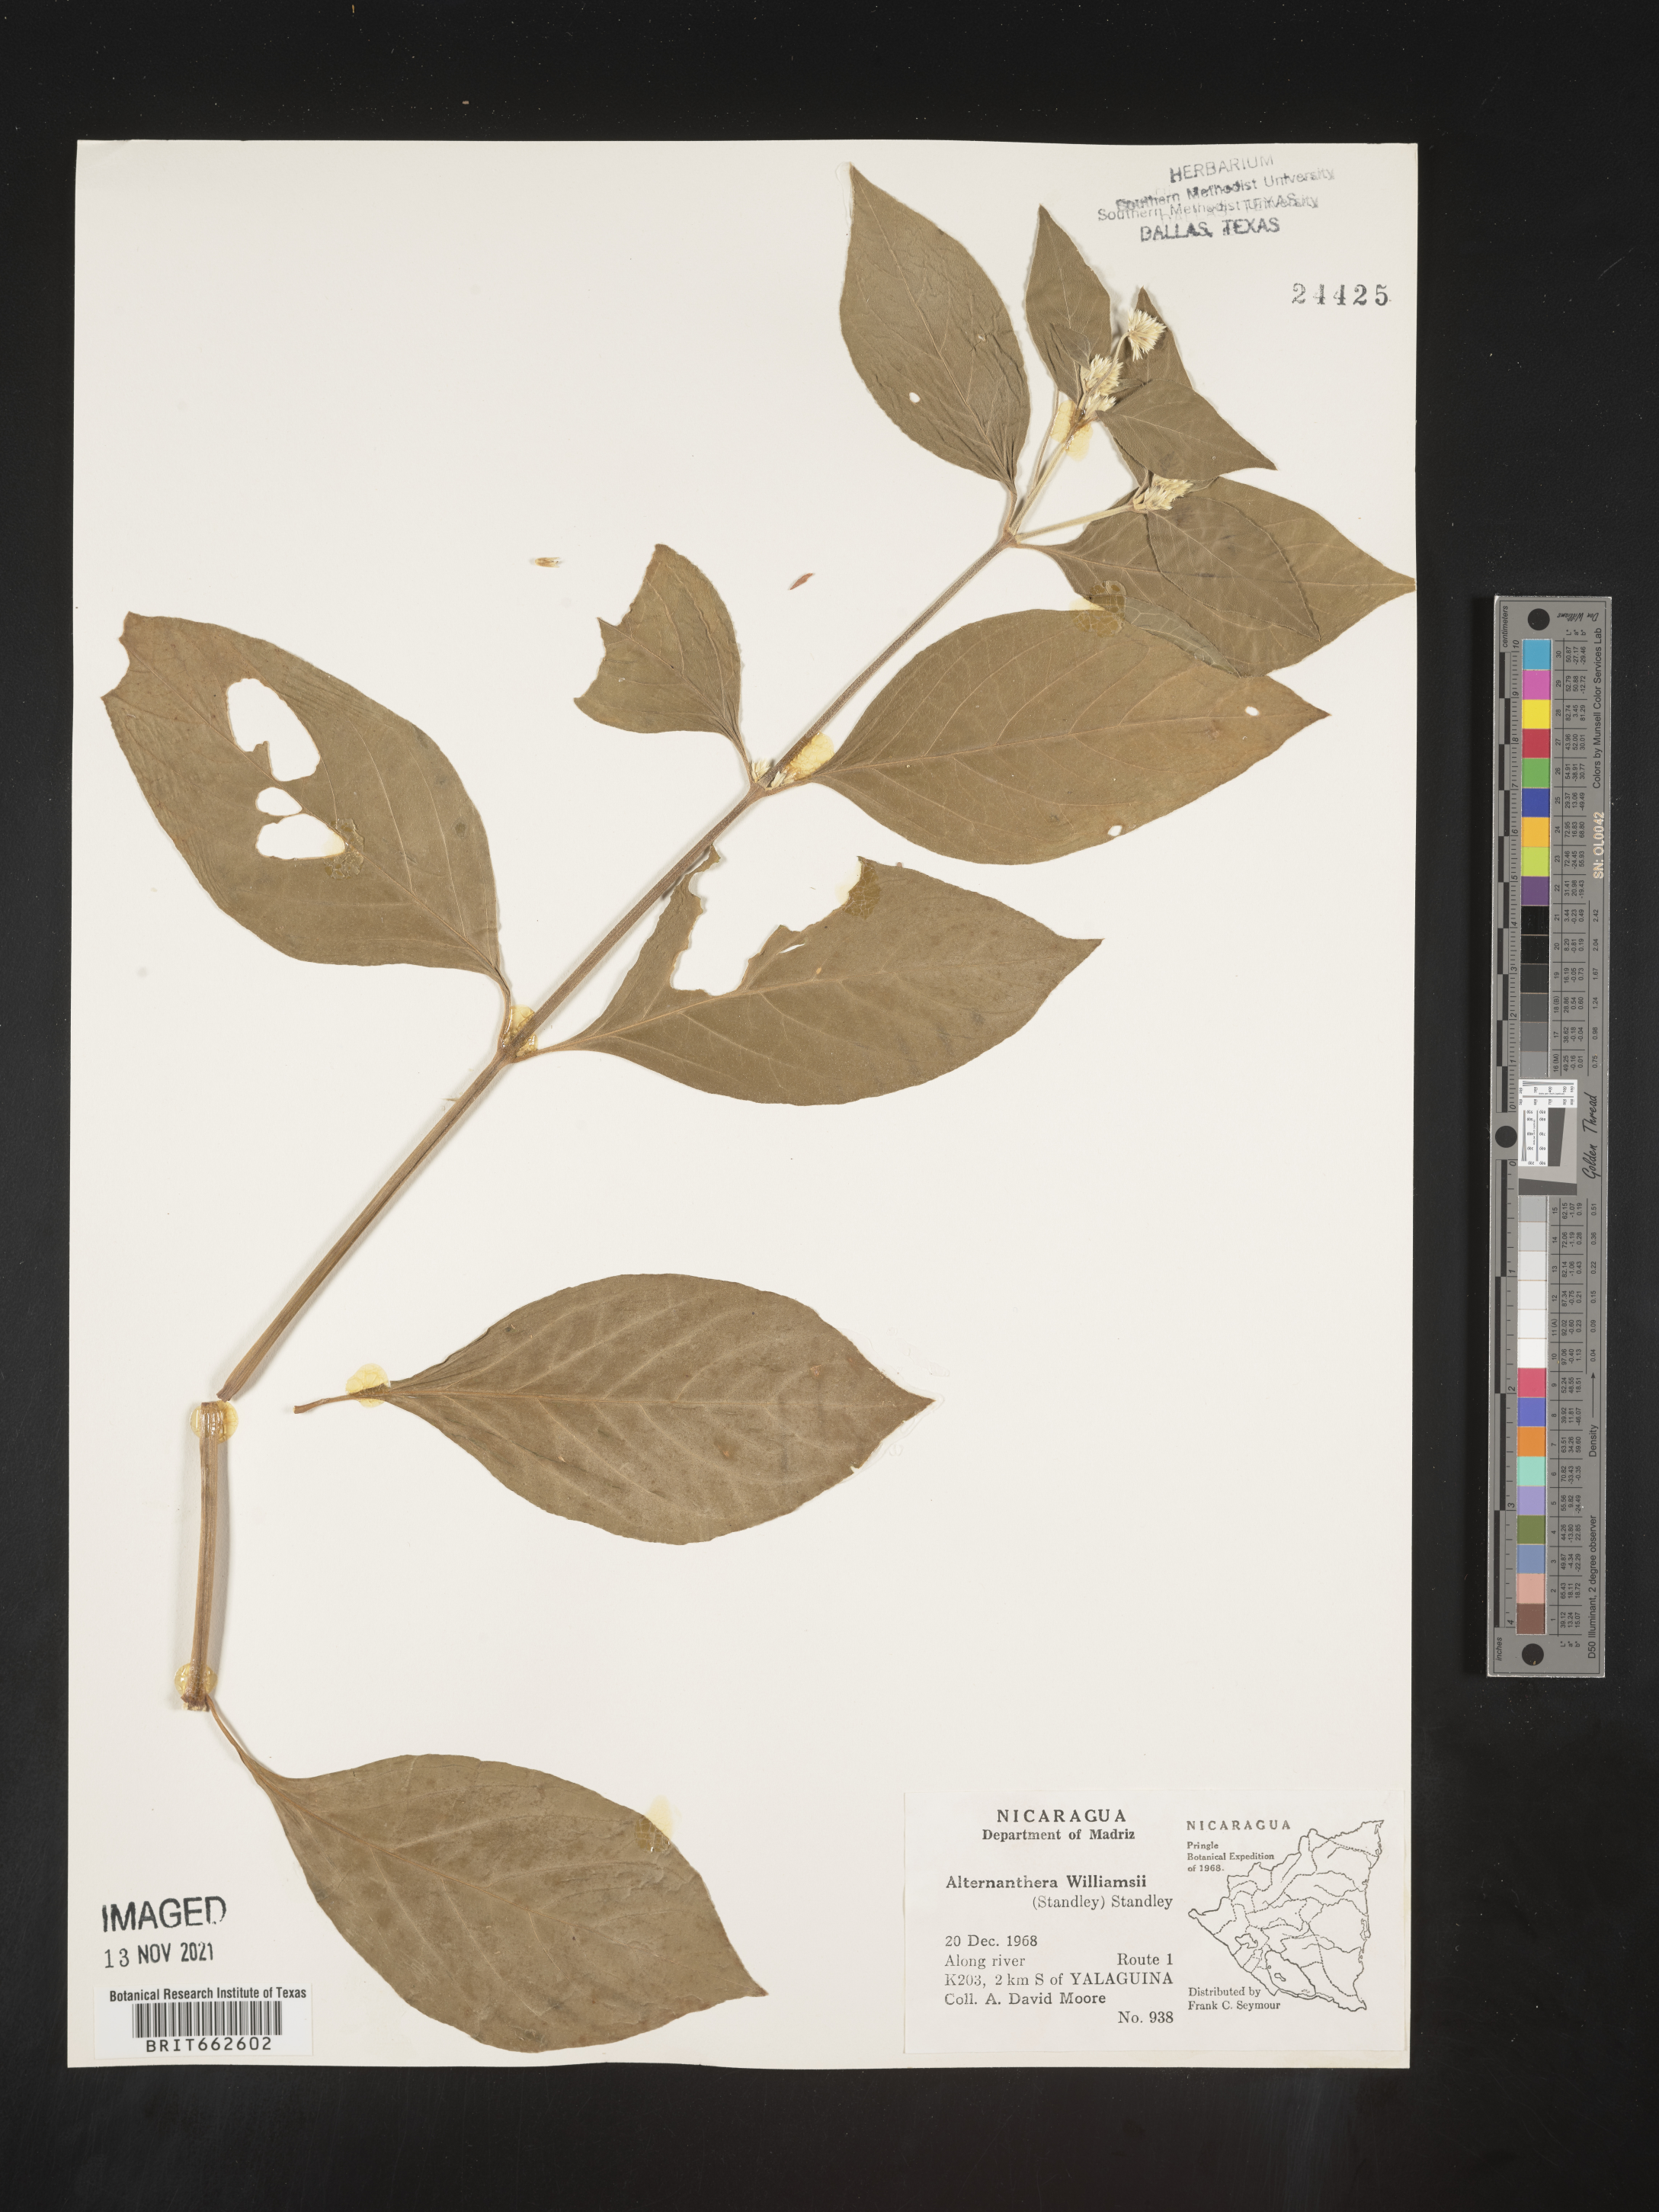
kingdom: Plantae
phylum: Tracheophyta
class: Magnoliopsida
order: Caryophyllales
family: Amaranthaceae
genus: Alternanthera
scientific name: Alternanthera
